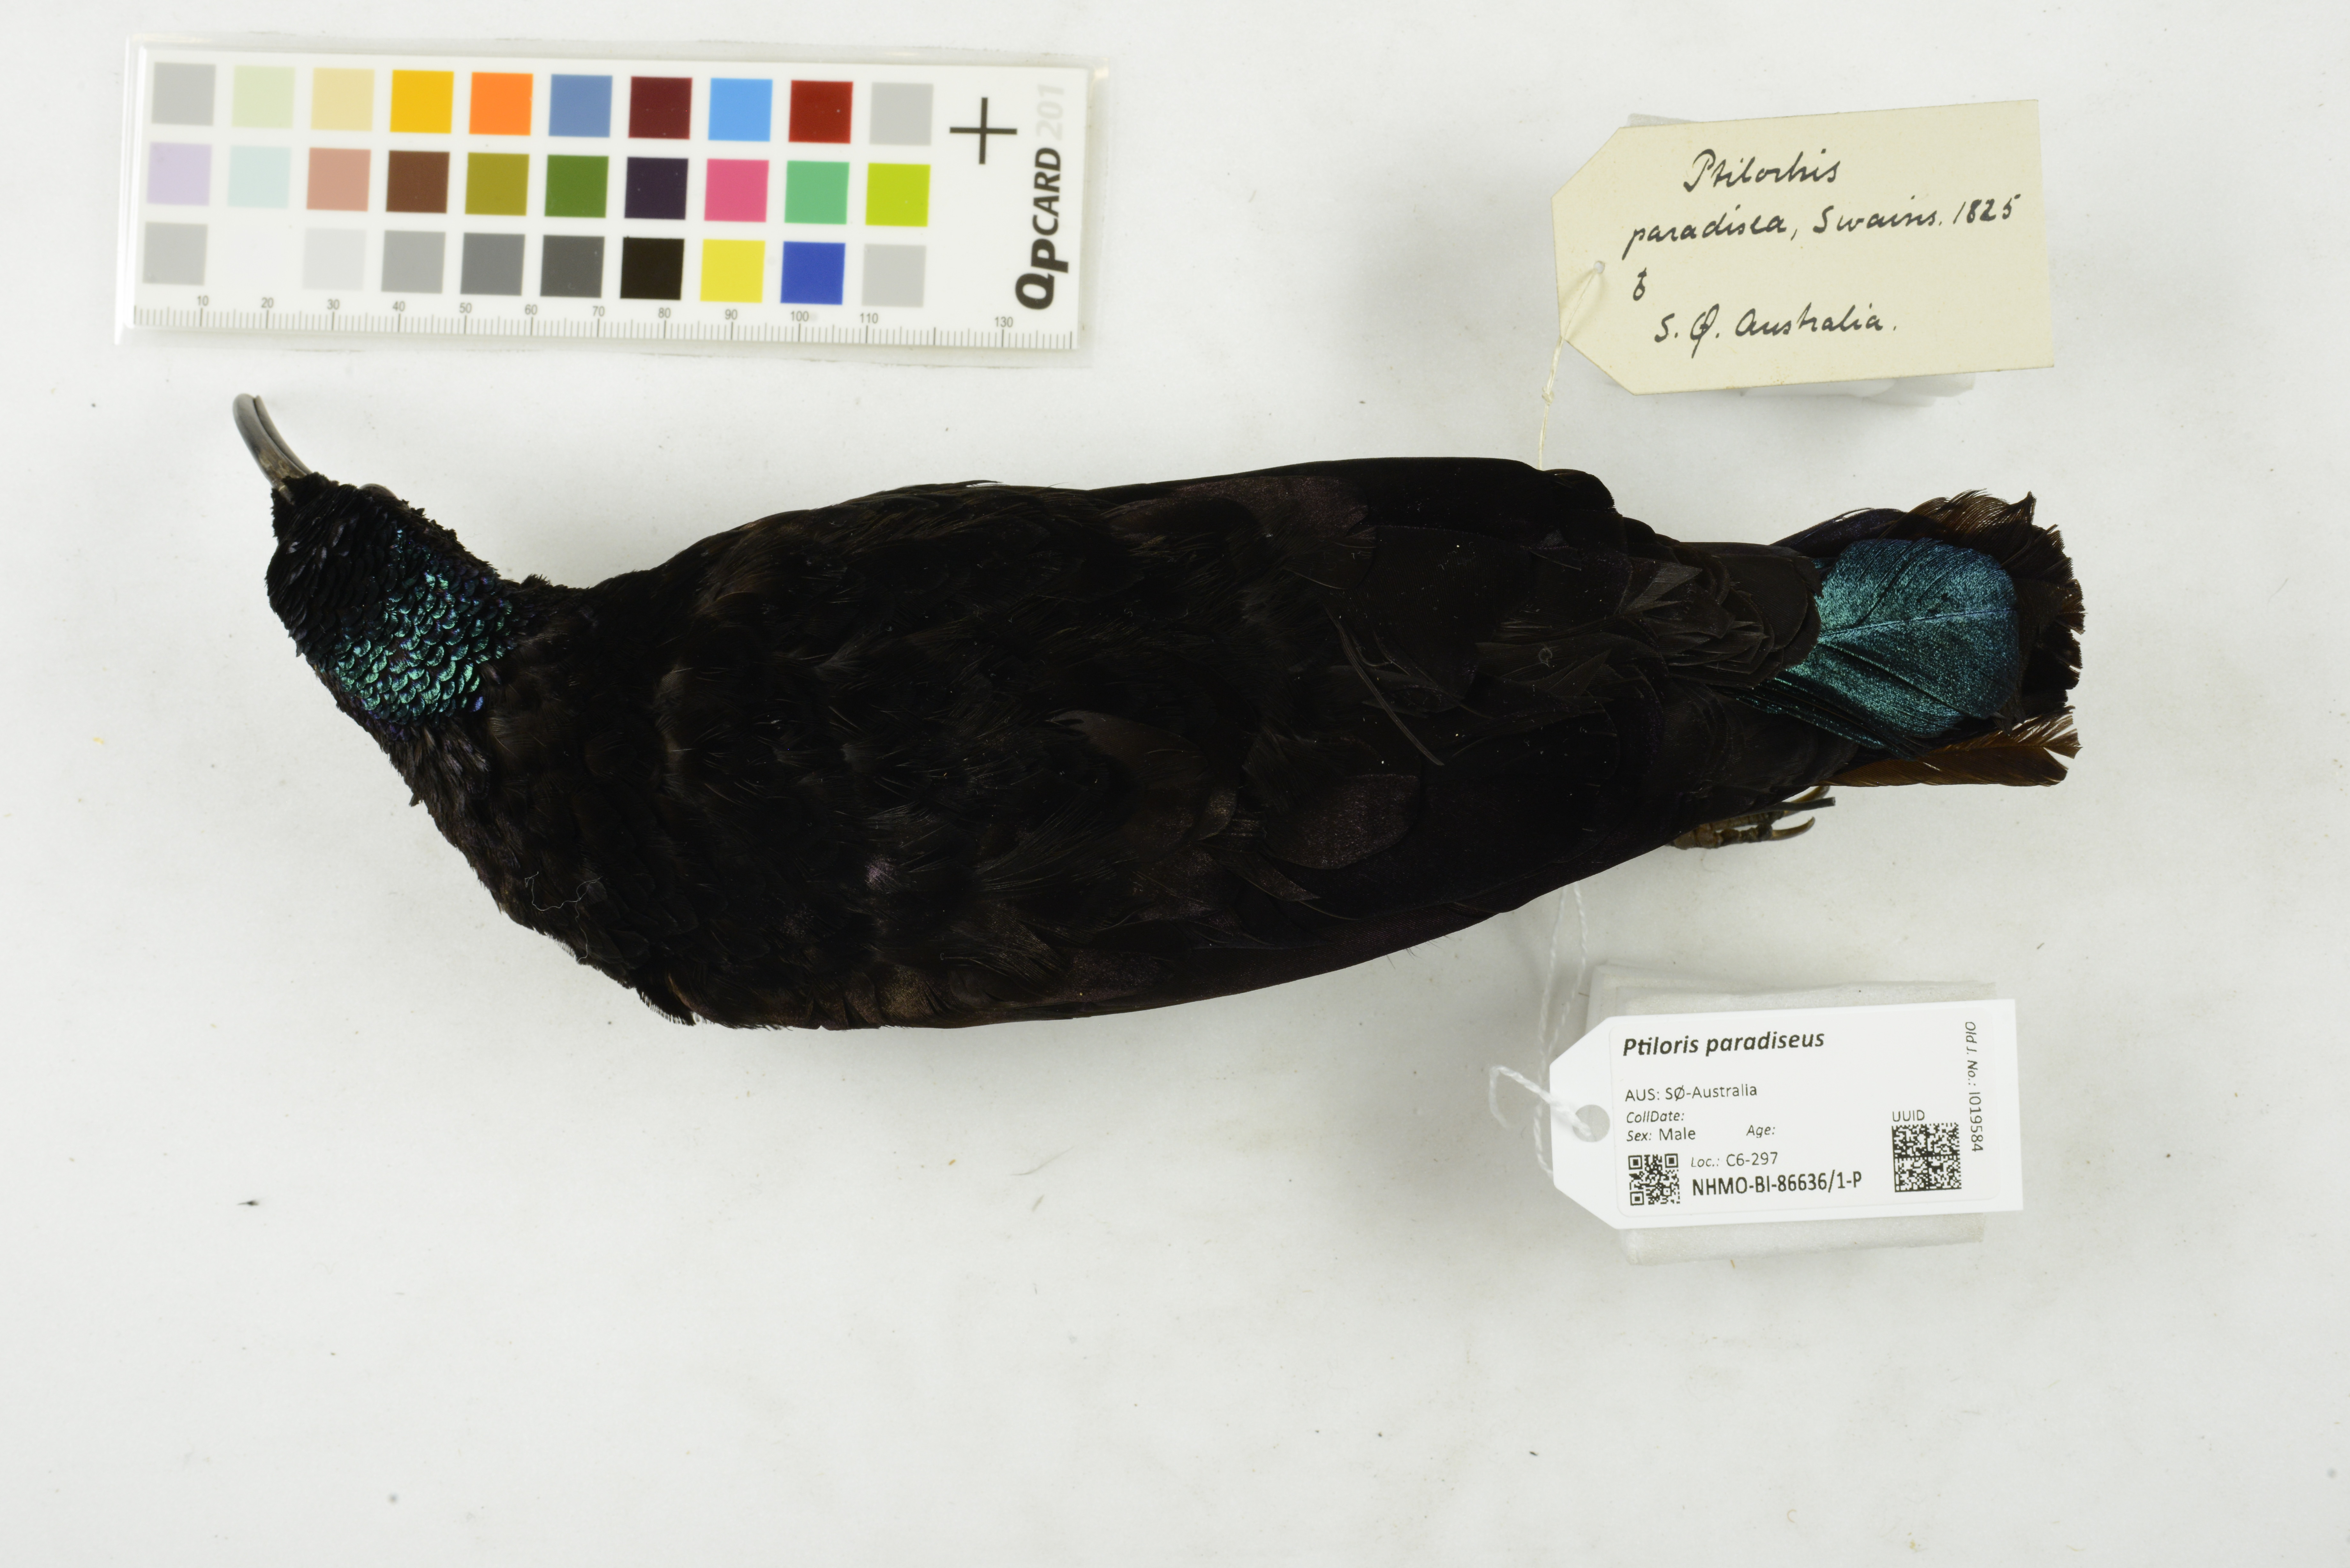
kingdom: Animalia
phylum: Chordata
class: Aves
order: Passeriformes
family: Paradisaeidae
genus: Ptiloris
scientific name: Ptiloris paradiseus
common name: Paradise riflebird
